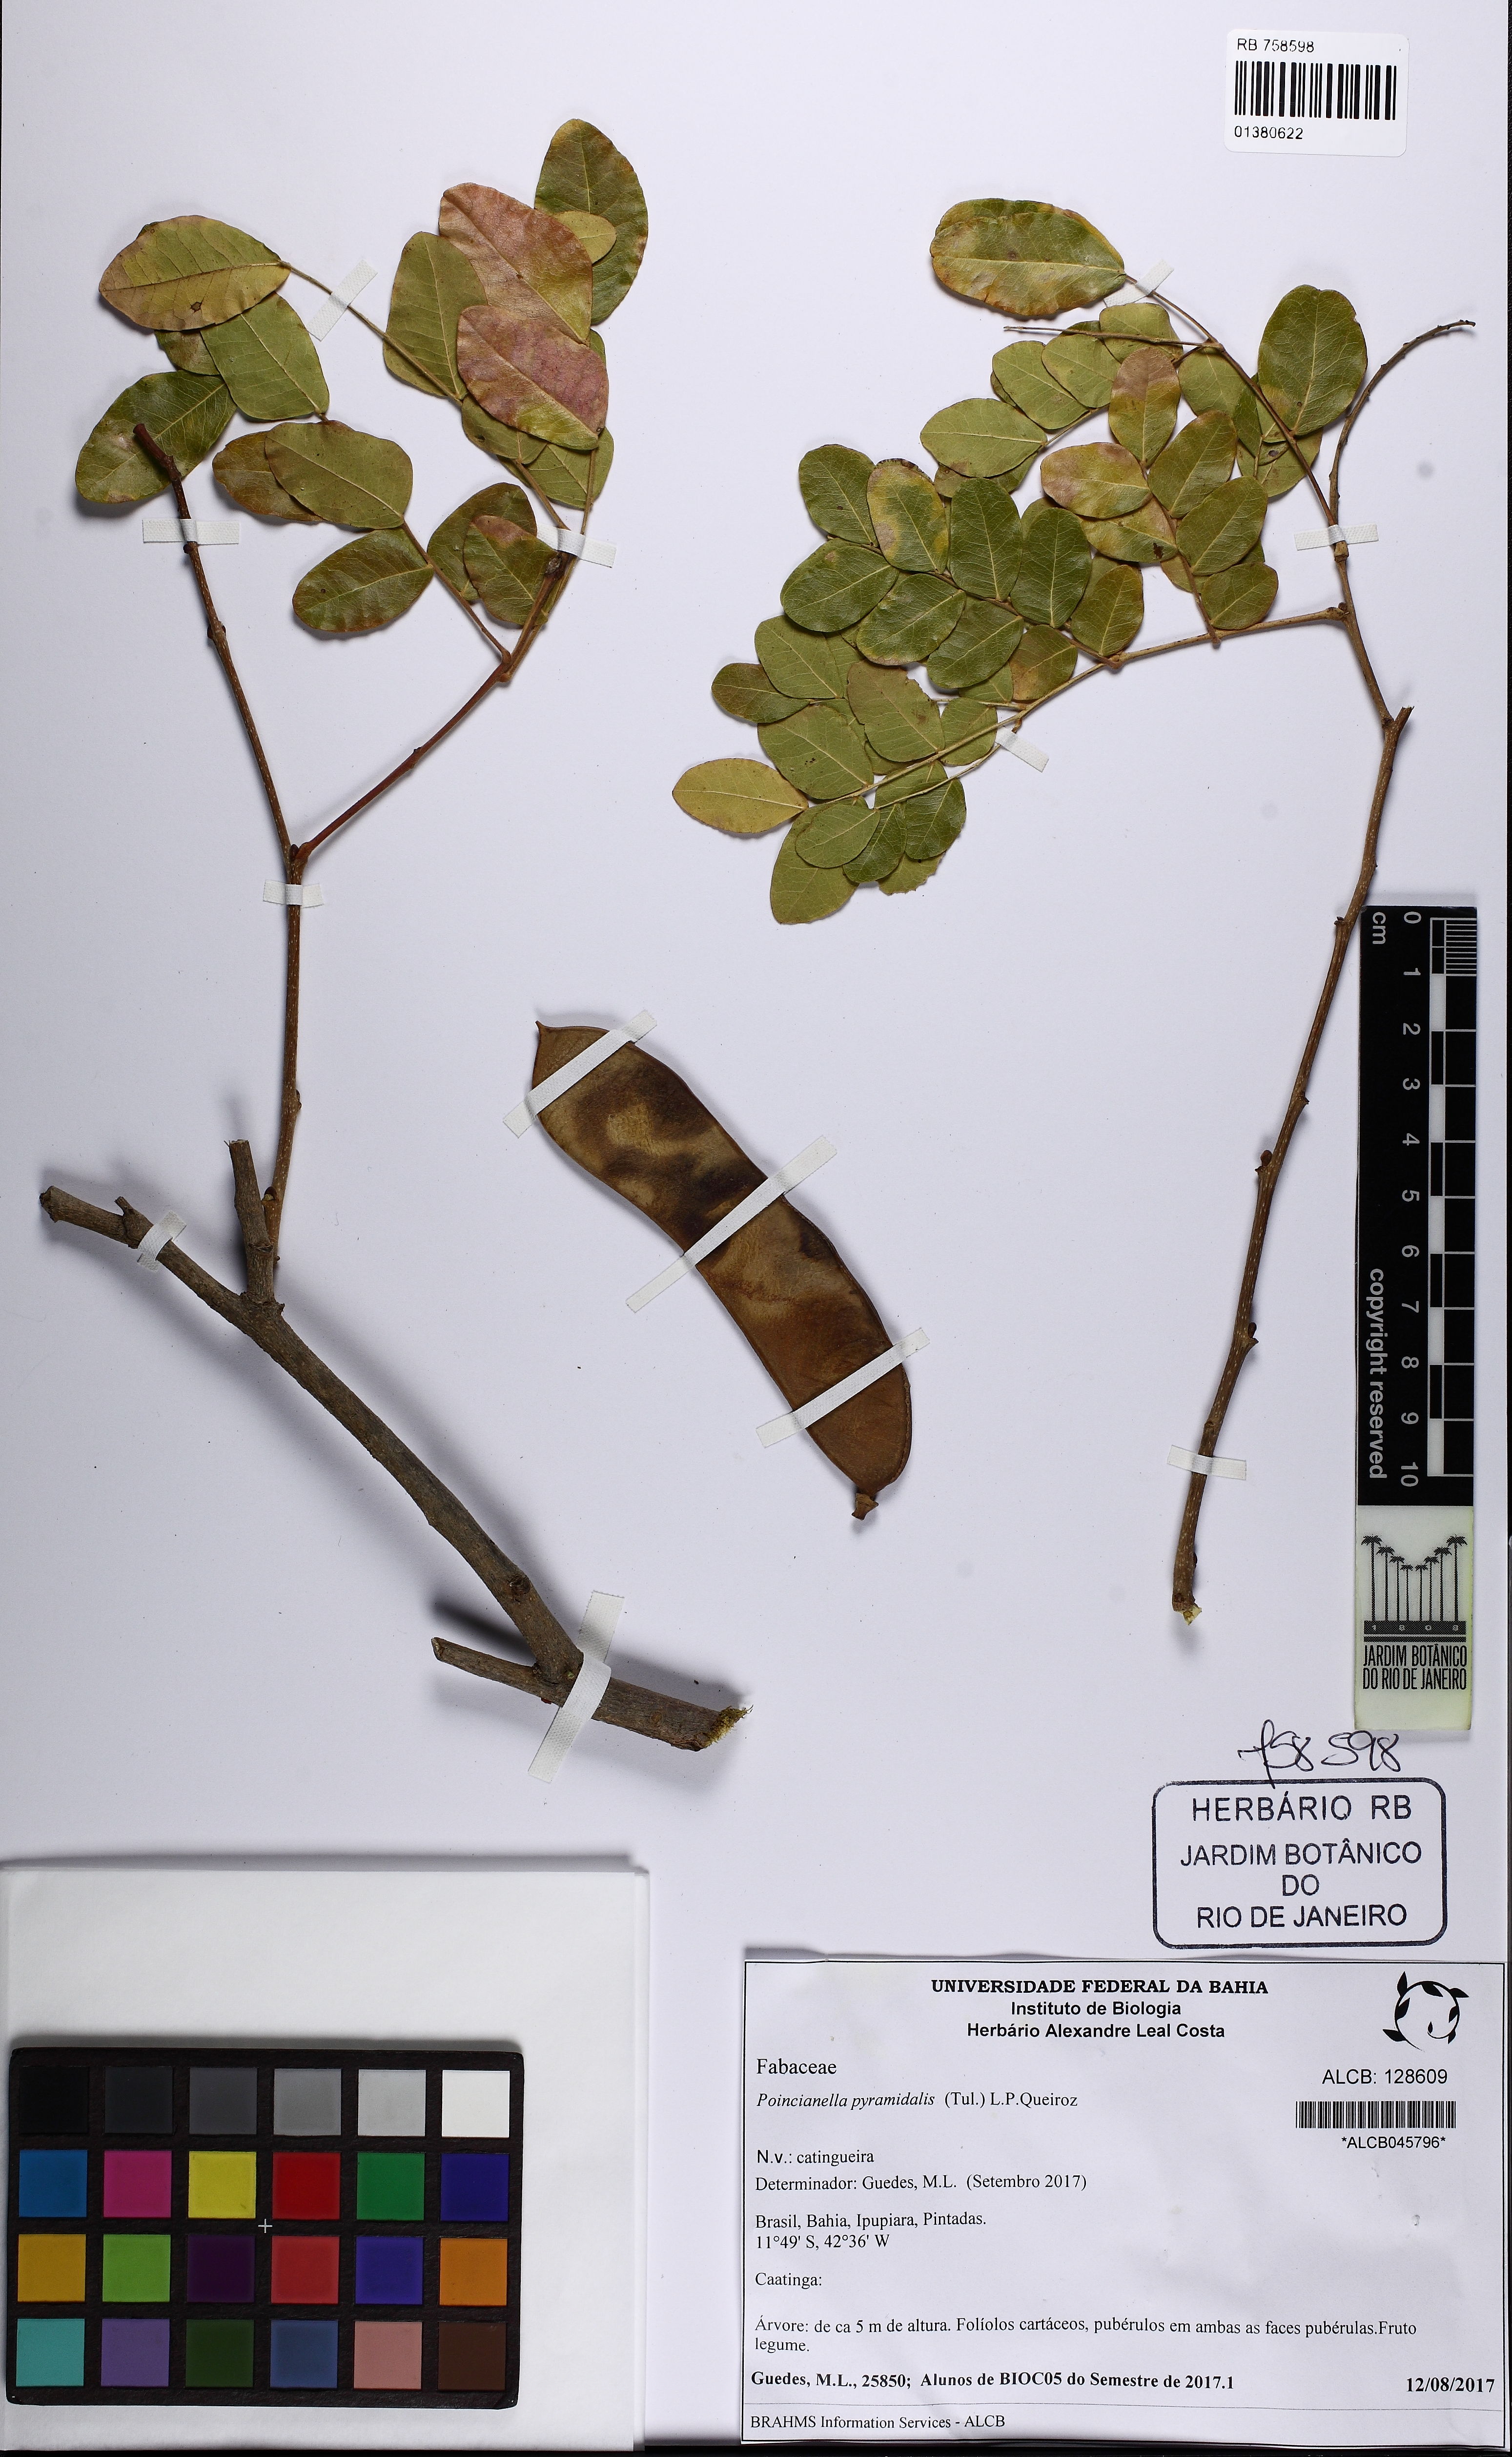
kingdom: Plantae
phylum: Tracheophyta
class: Magnoliopsida
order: Fabales
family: Fabaceae
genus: Cenostigma
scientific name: Cenostigma pyramidale
